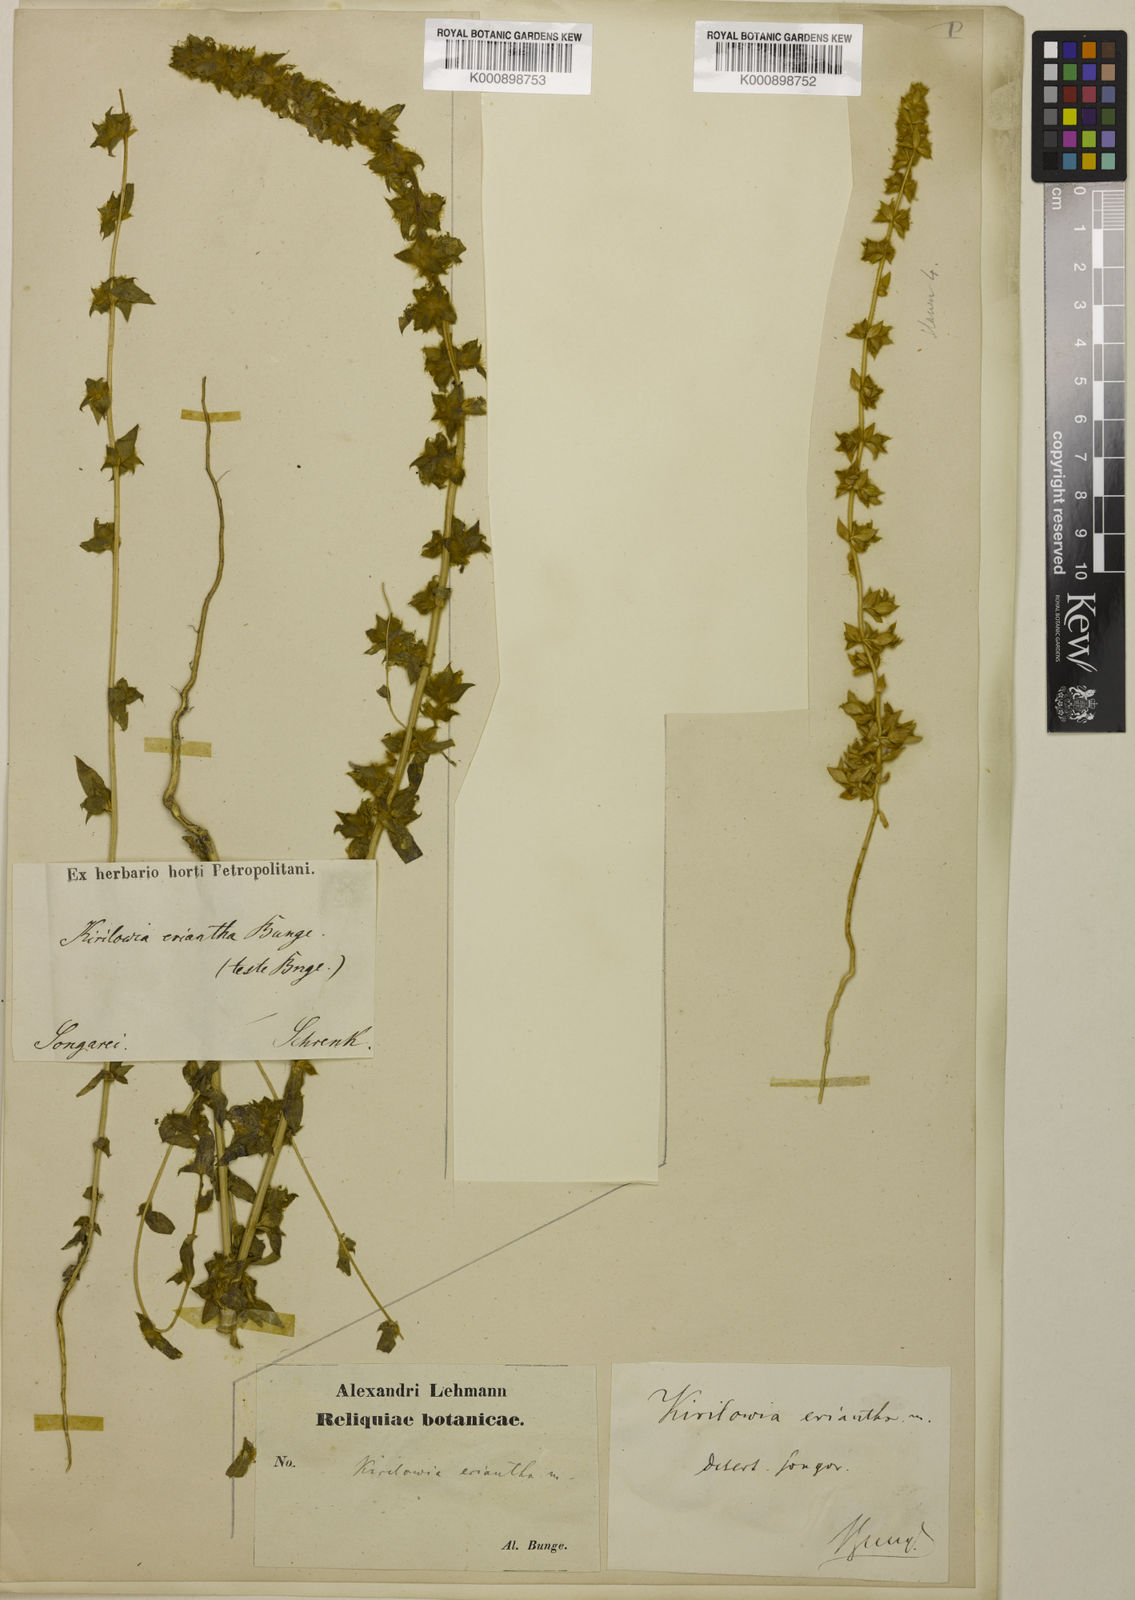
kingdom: Plantae
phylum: Tracheophyta
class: Magnoliopsida
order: Caryophyllales
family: Amaranthaceae
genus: Bassia
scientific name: Bassia lasiantha
